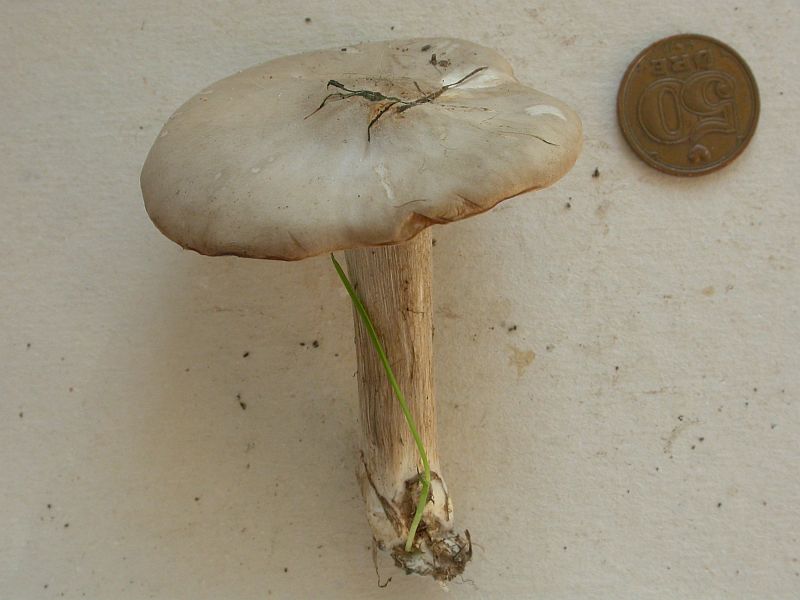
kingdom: Fungi
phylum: Basidiomycota
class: Agaricomycetes
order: Agaricales
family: Tricholomataceae
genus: Melanoleuca
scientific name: Melanoleuca grammopodia
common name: stribestokket munkehat
